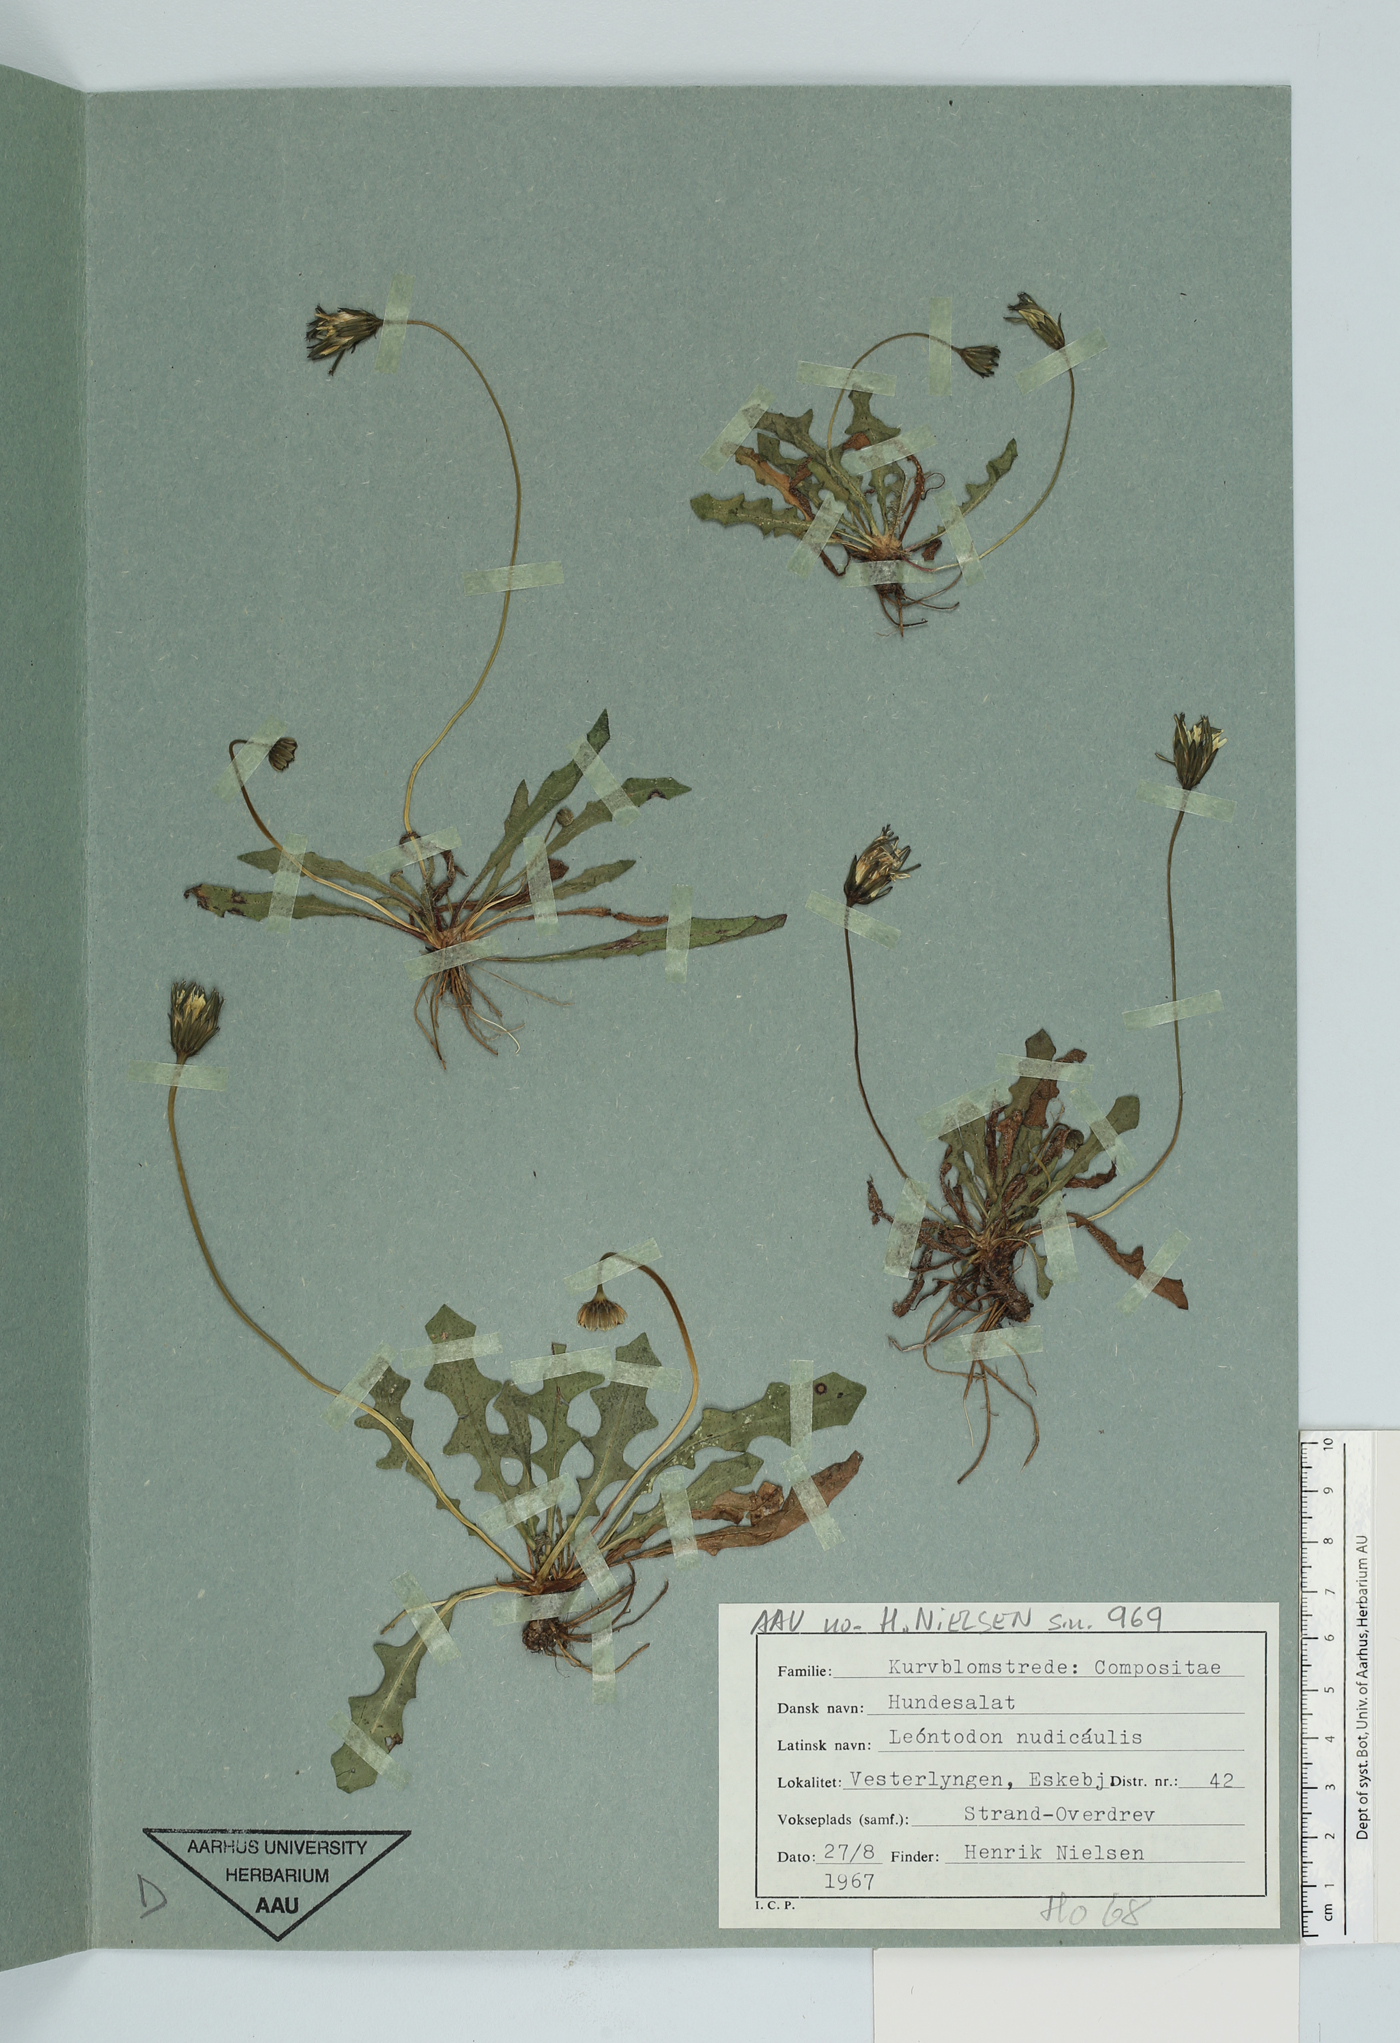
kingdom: Plantae
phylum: Tracheophyta
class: Magnoliopsida
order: Asterales
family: Asteraceae
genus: Thrincia
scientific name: Thrincia saxatilis
